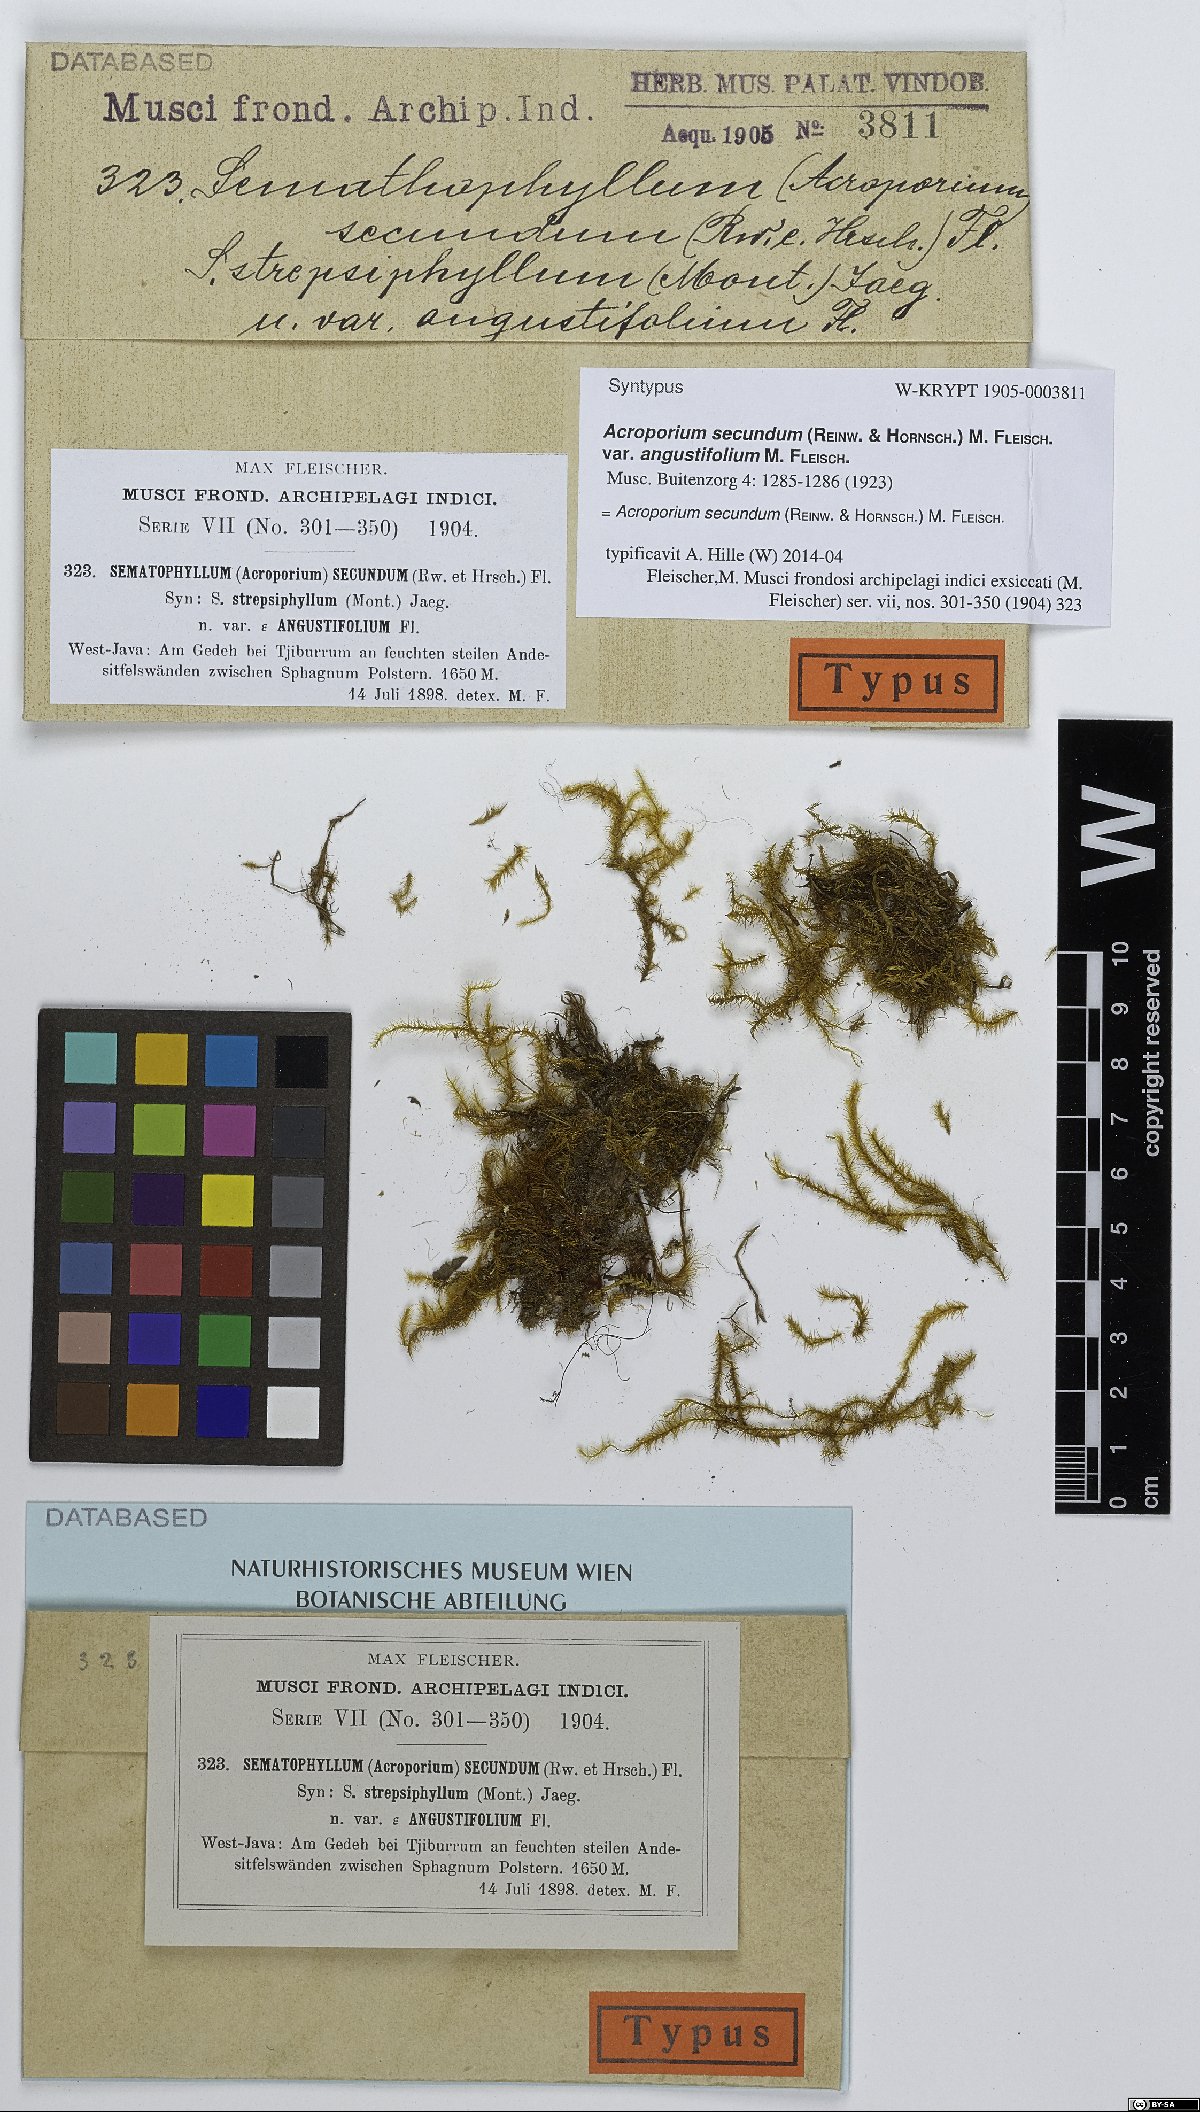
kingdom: Plantae
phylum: Bryophyta
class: Bryopsida
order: Hypnales
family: Sematophyllaceae
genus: Acroporium
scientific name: Acroporium strepsiphyllum
